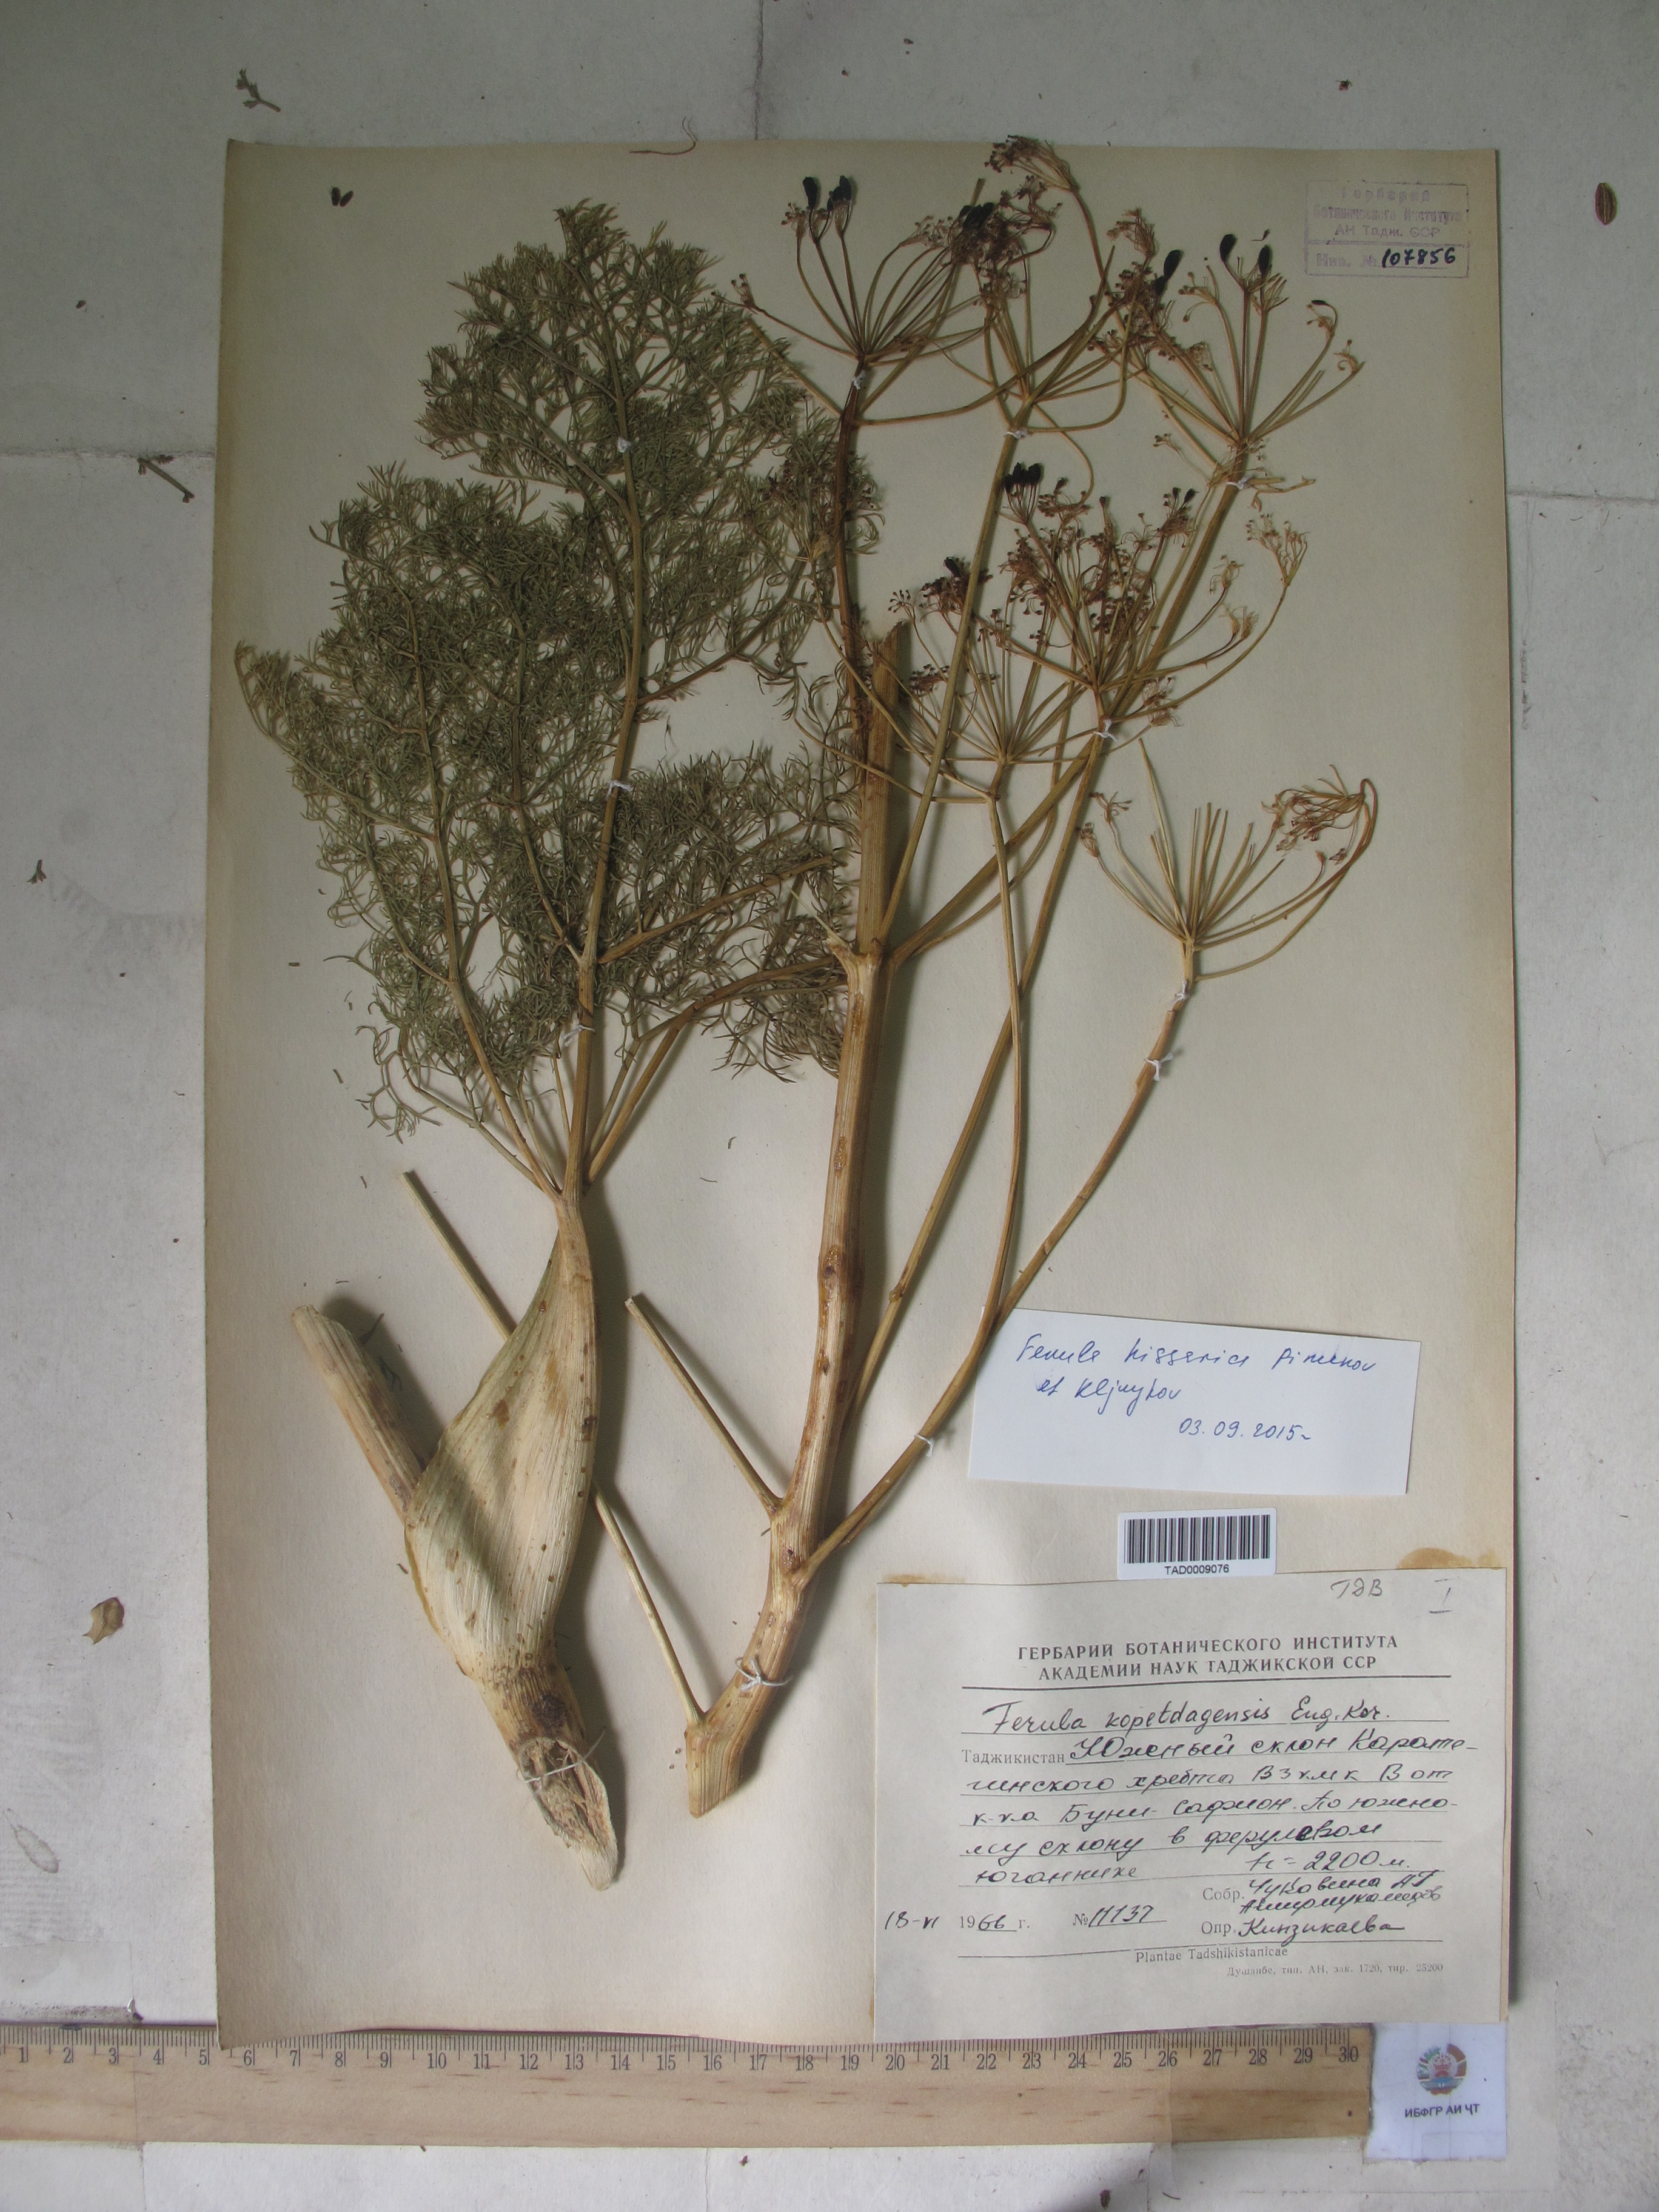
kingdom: Plantae
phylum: Tracheophyta
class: Magnoliopsida
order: Apiales
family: Apiaceae
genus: Ferula
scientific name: Ferula hissarica
